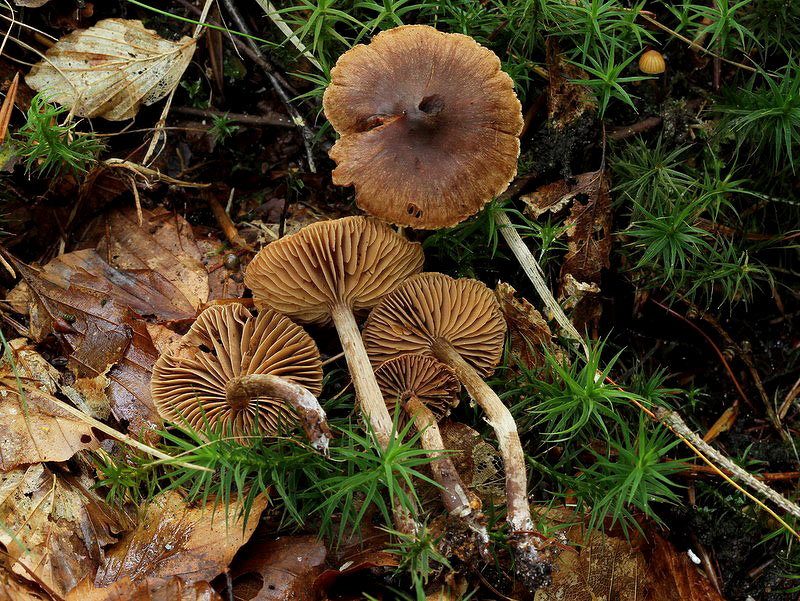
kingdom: Fungi
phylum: Basidiomycota
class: Agaricomycetes
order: Agaricales
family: Cortinariaceae
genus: Cortinarius
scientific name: Cortinarius umbrinolens
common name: mørk slørhat
